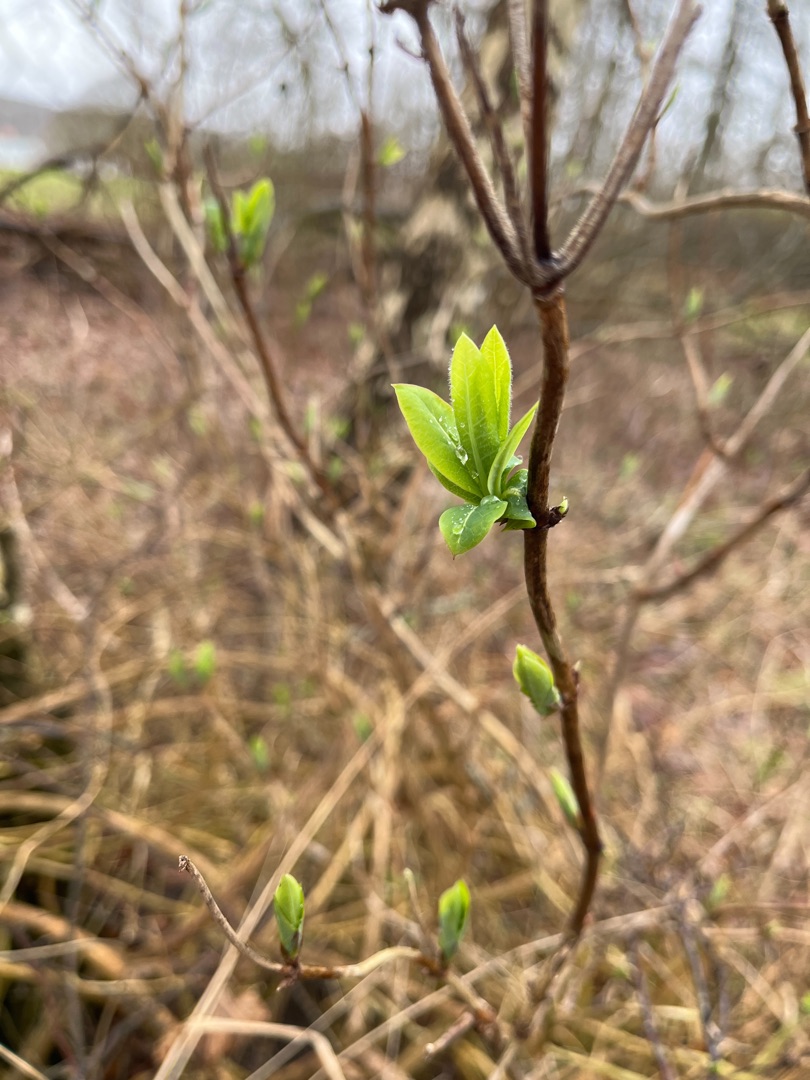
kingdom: Plantae
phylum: Tracheophyta
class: Magnoliopsida
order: Dipsacales
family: Caprifoliaceae
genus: Lonicera
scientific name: Lonicera periclymenum
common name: Almindelig gedeblad
